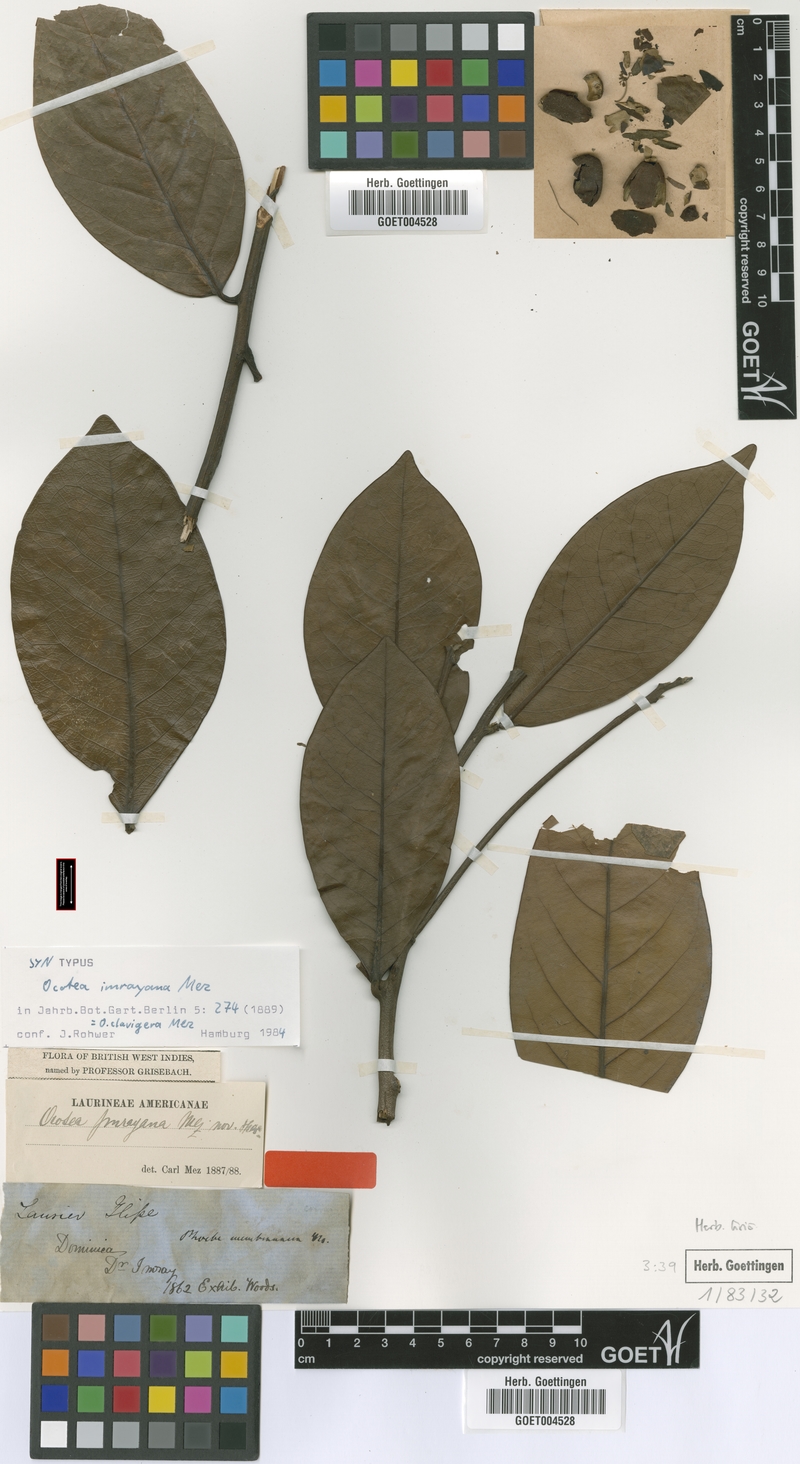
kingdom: Plantae
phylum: Tracheophyta
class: Magnoliopsida
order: Laurales
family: Lauraceae
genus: Ocotea
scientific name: Ocotea clavigera
